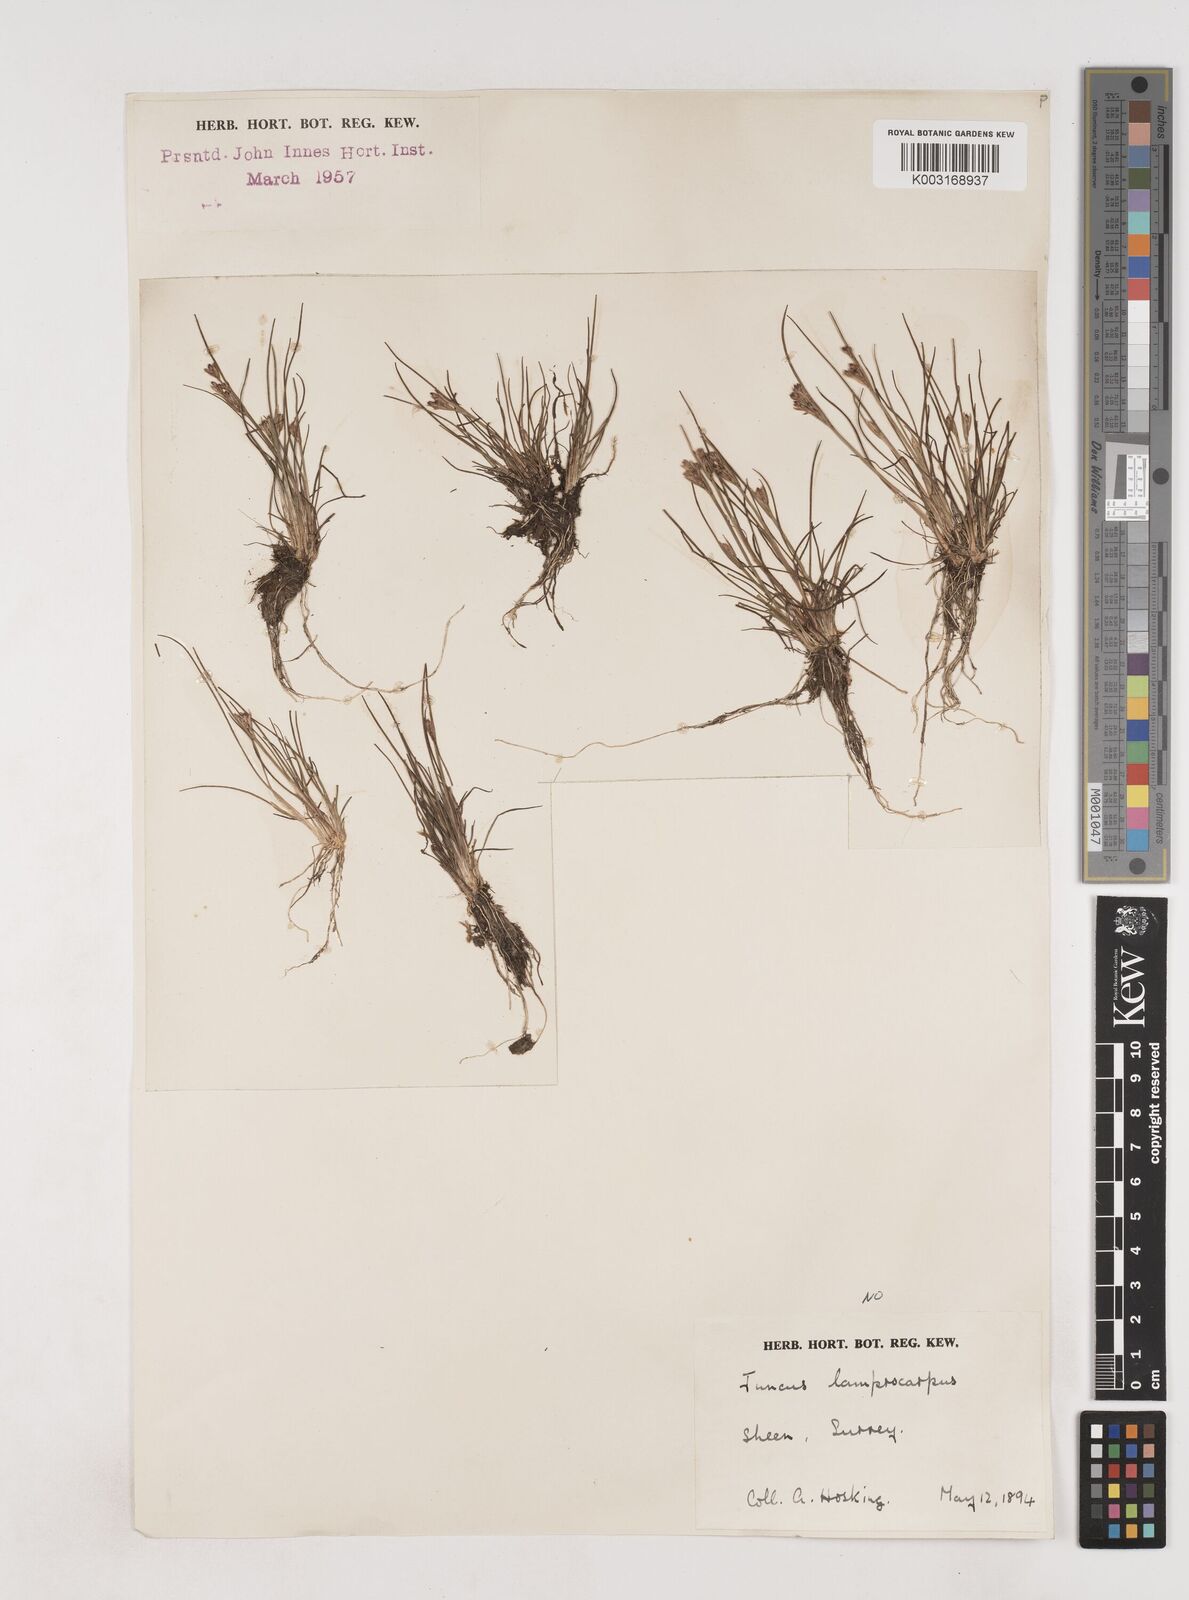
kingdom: Plantae
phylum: Tracheophyta
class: Liliopsida
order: Poales
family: Juncaceae
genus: Juncus
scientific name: Juncus bulbosus
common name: Bulbous rush
